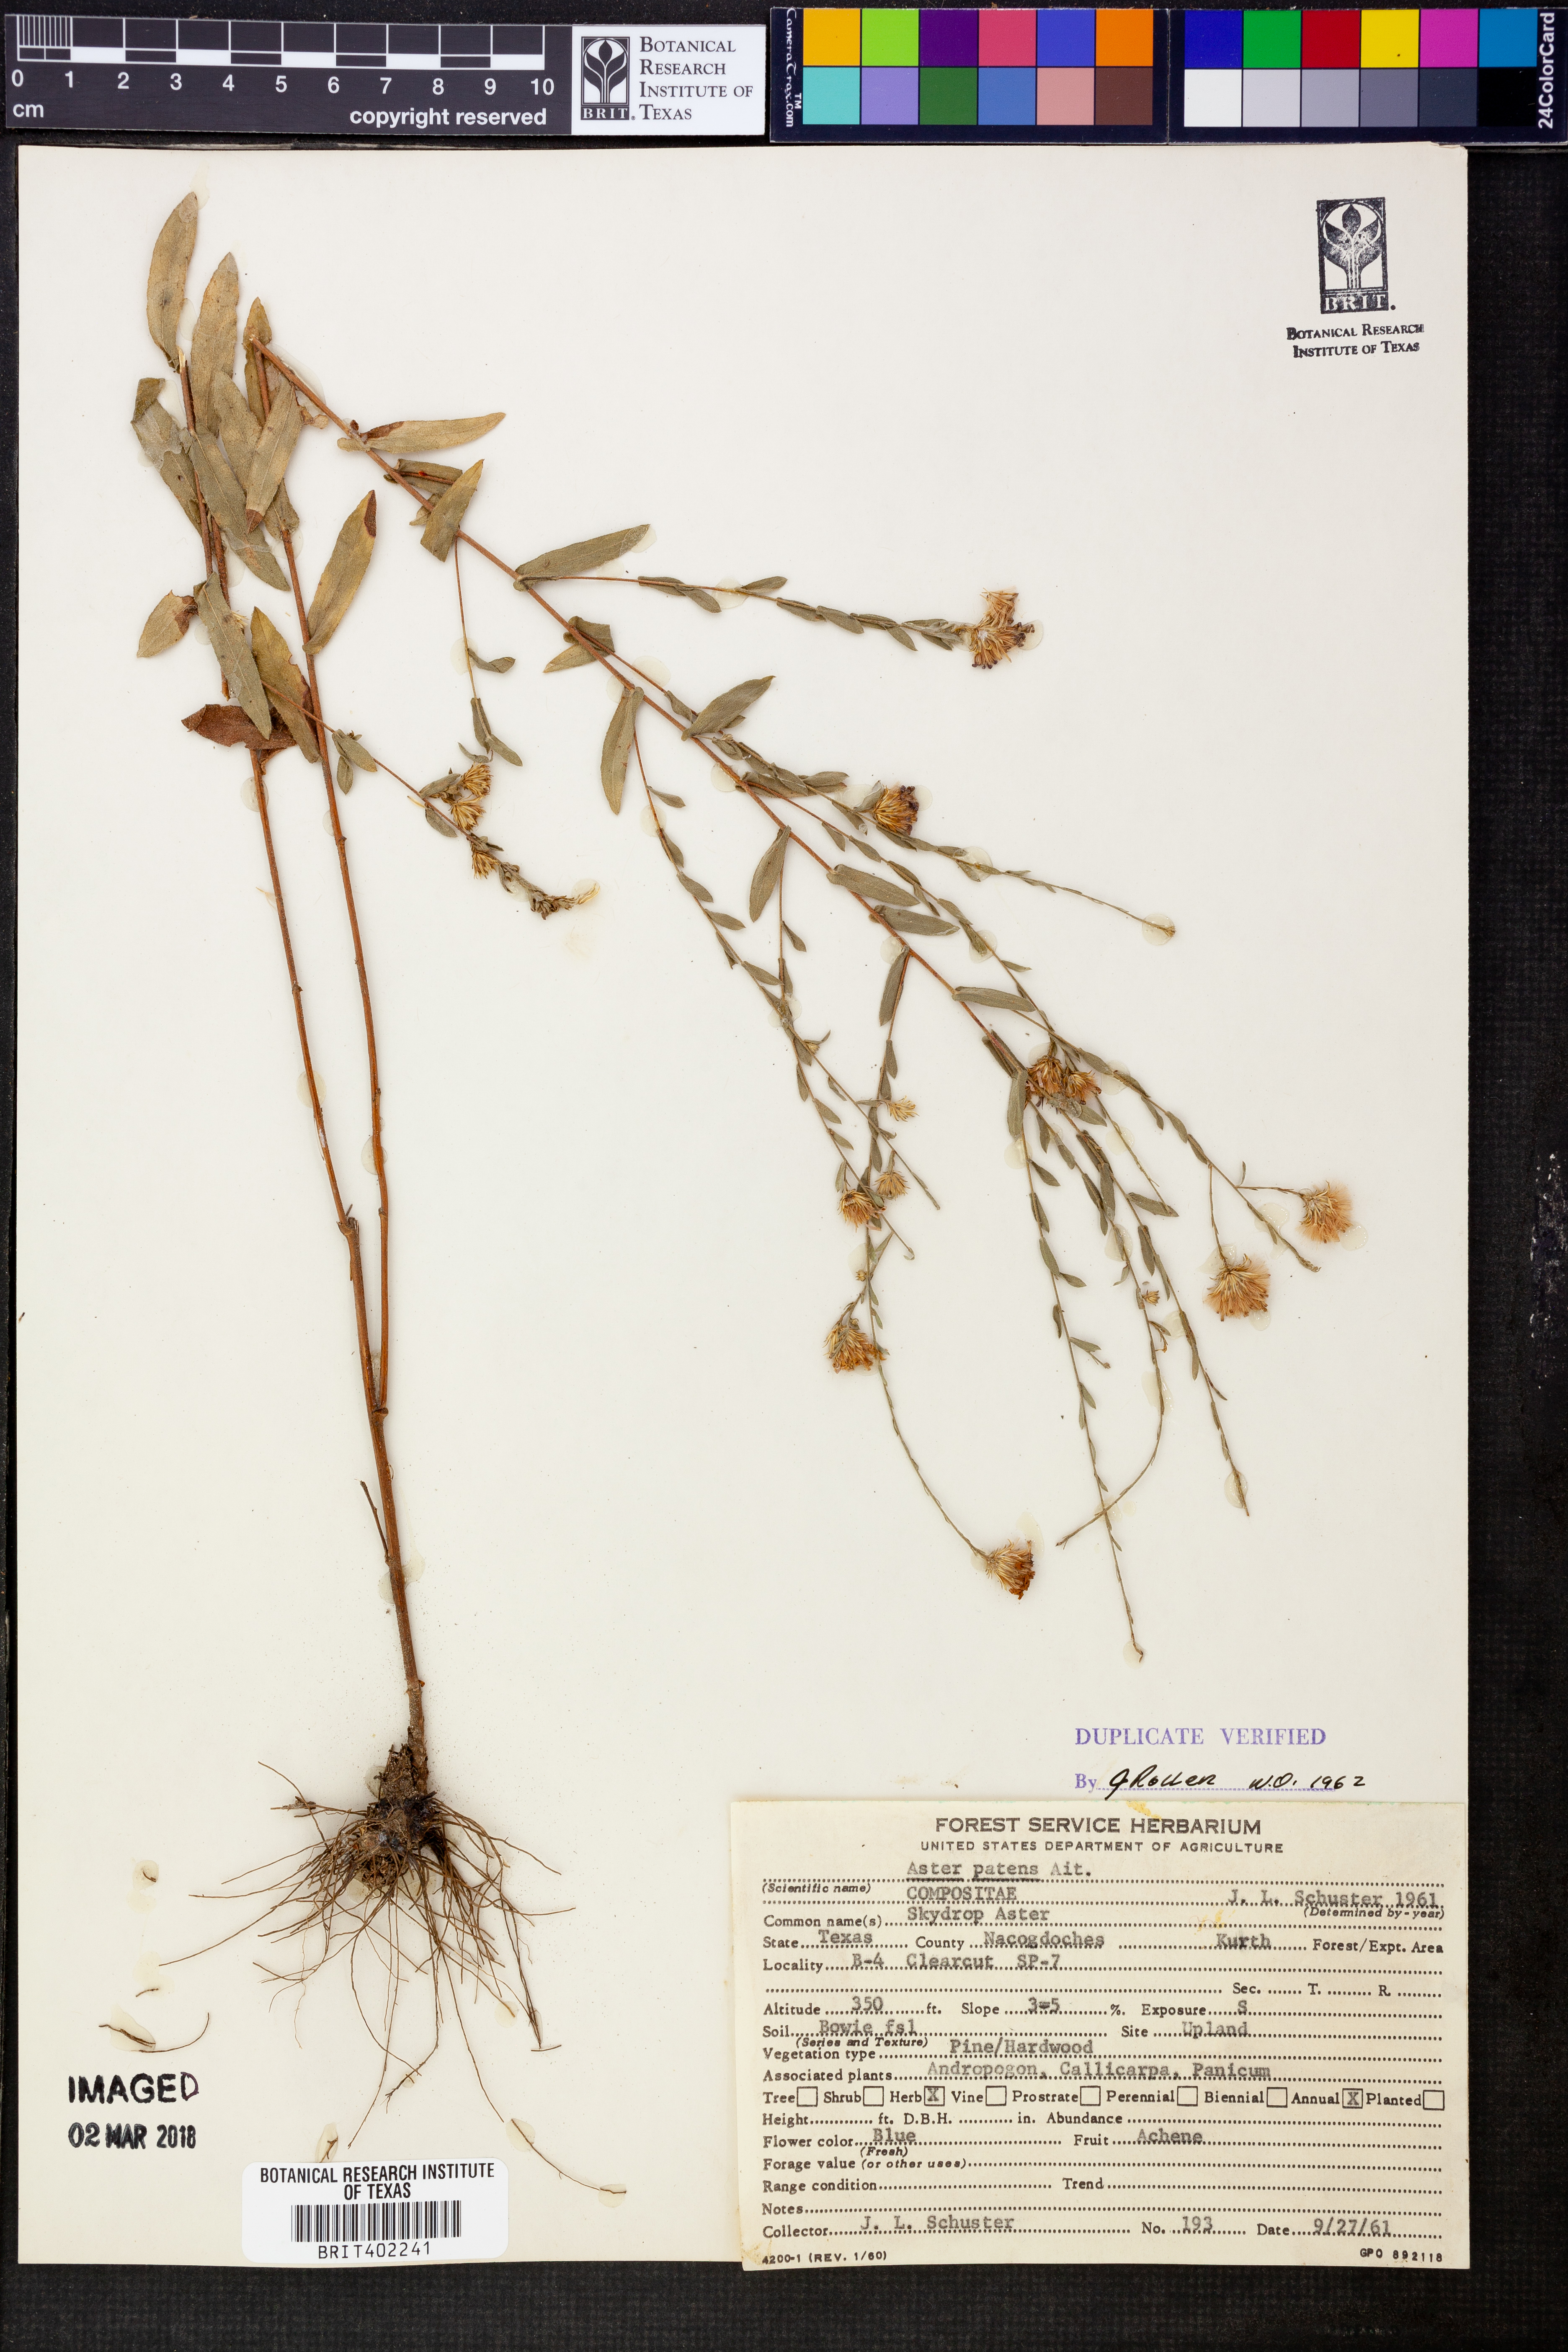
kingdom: Plantae
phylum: Tracheophyta
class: Magnoliopsida
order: Asterales
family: Asteraceae
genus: Symphyotrichum
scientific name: Symphyotrichum patens
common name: Late purple aster
